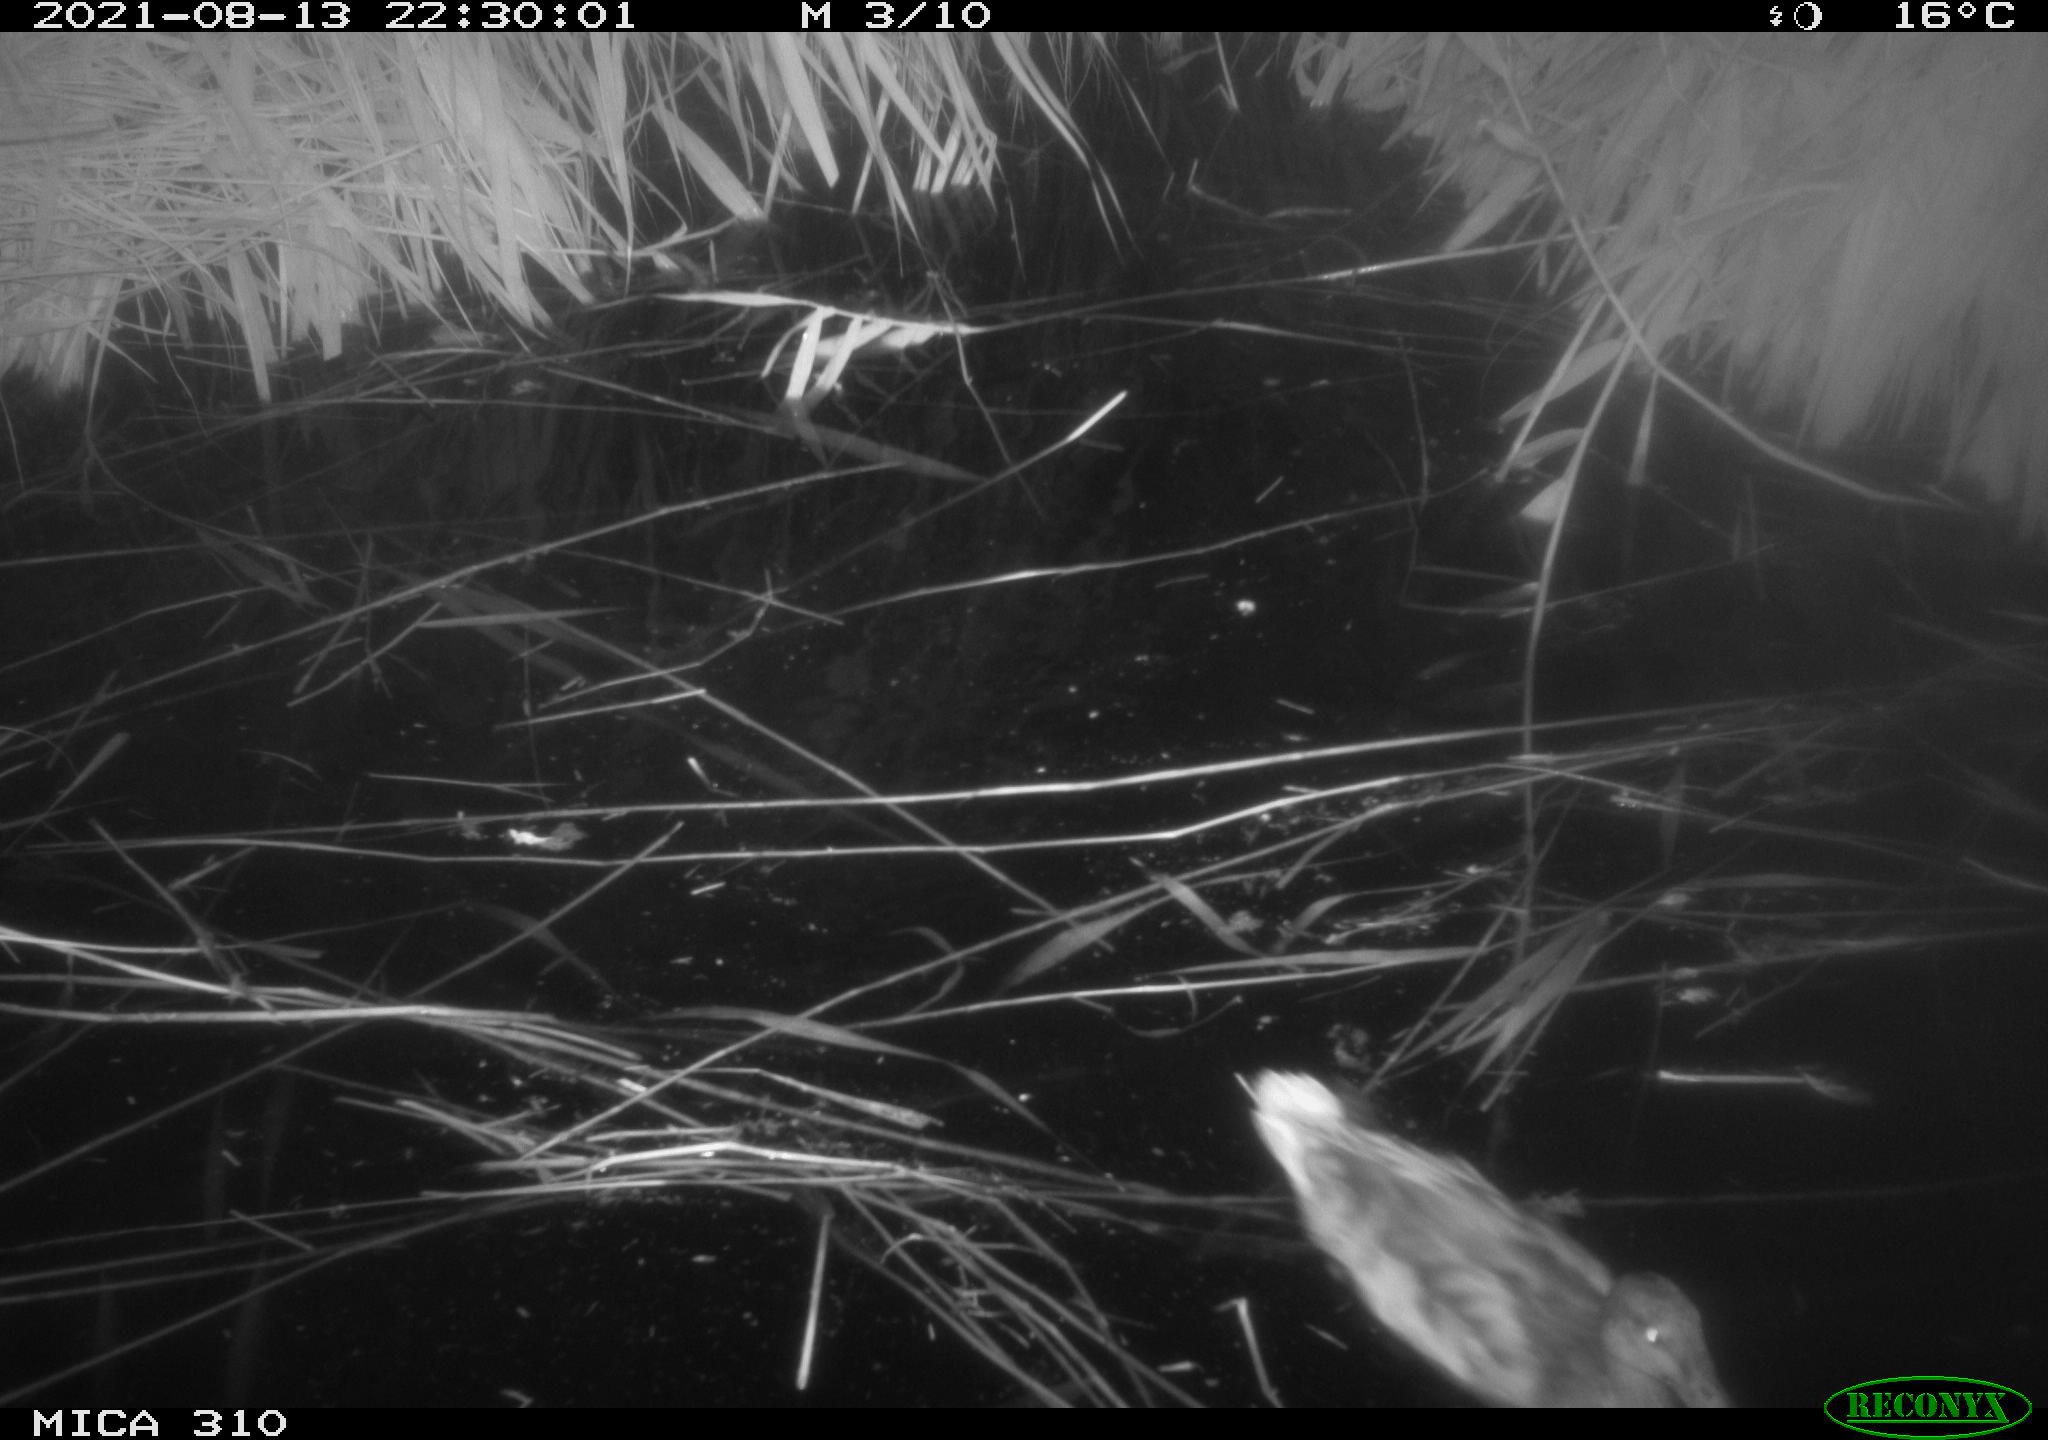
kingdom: Animalia
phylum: Chordata
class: Aves
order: Anseriformes
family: Anatidae
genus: Anas
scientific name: Anas platyrhynchos
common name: Mallard
